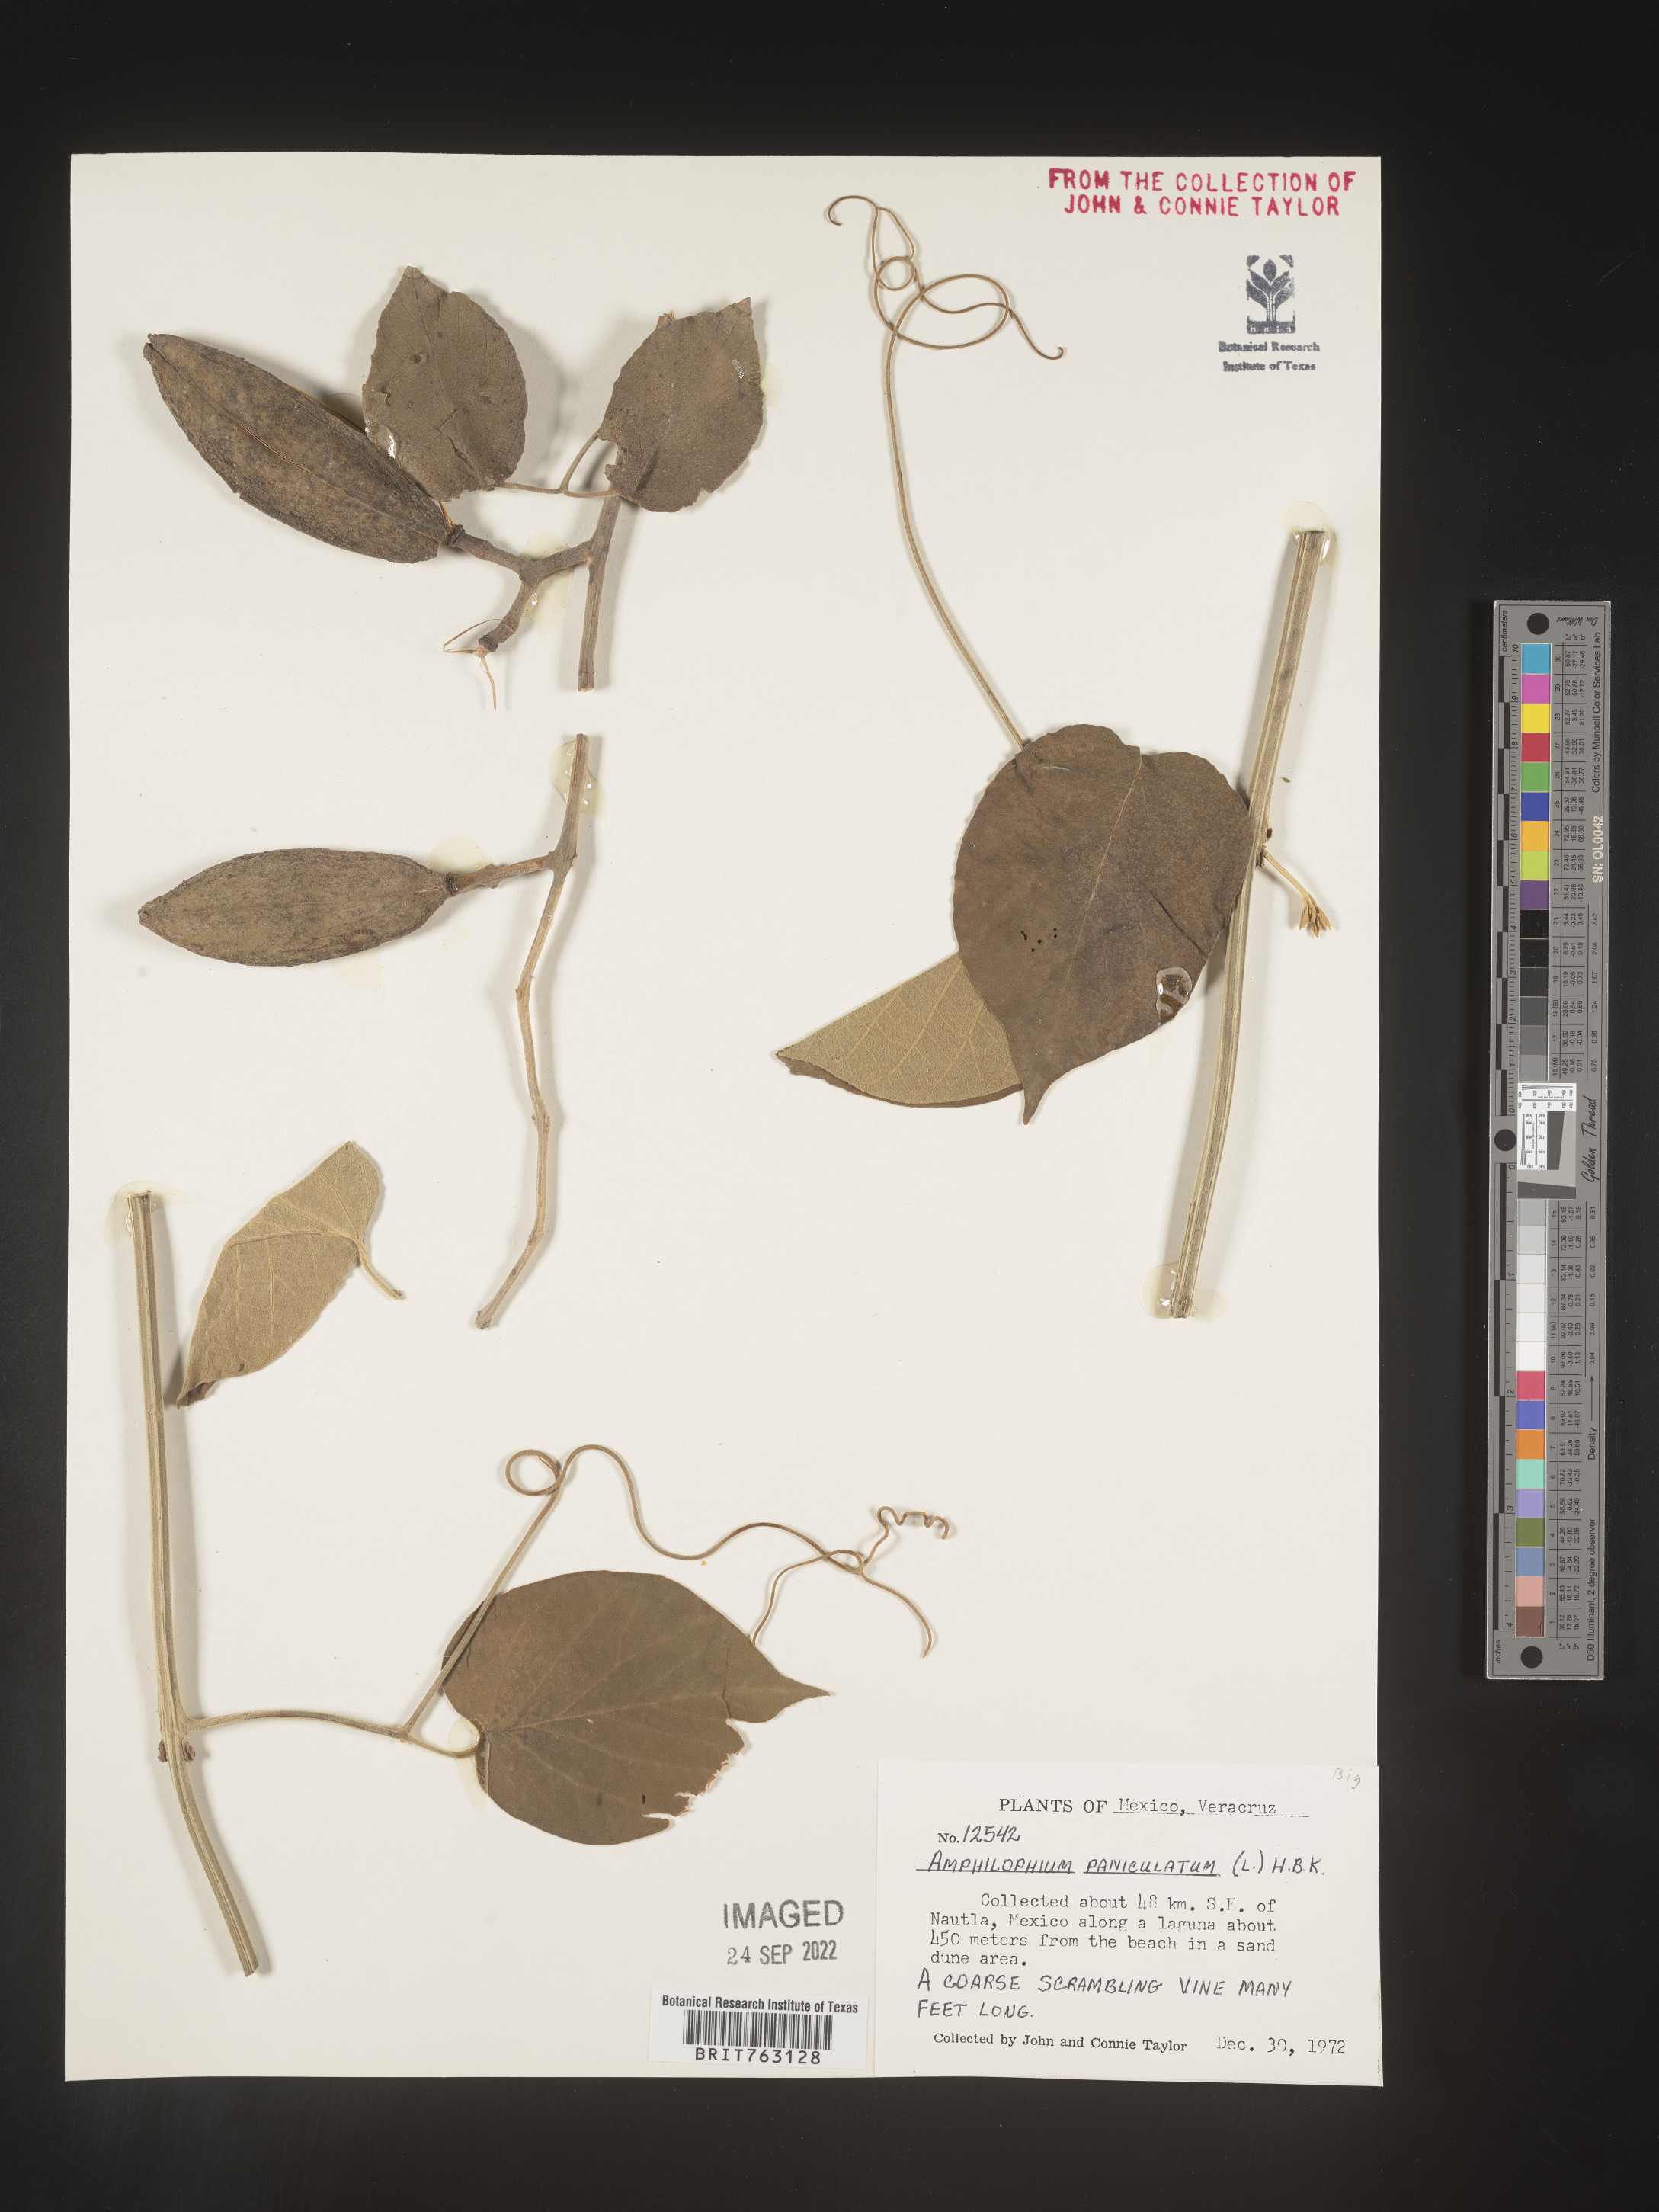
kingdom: Plantae
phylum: Tracheophyta
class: Magnoliopsida
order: Lamiales
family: Bignoniaceae
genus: Amphilophium
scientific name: Amphilophium
